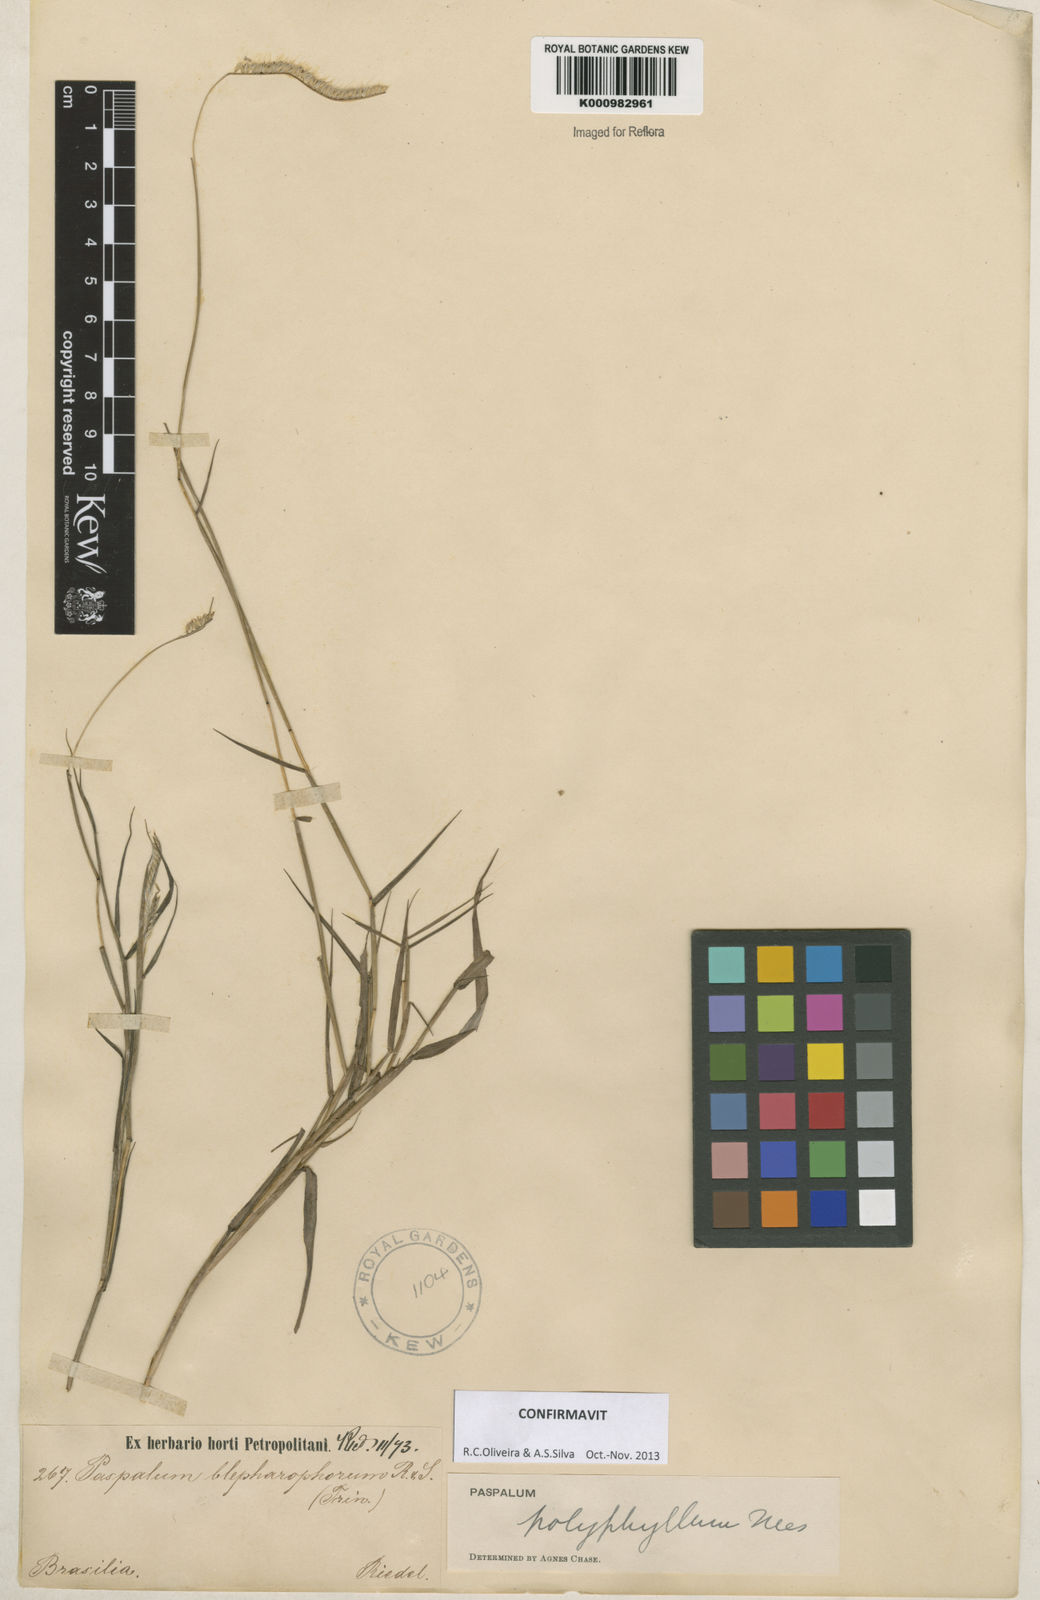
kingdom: Plantae
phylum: Tracheophyta
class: Liliopsida
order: Poales
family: Poaceae
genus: Paspalum
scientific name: Paspalum
